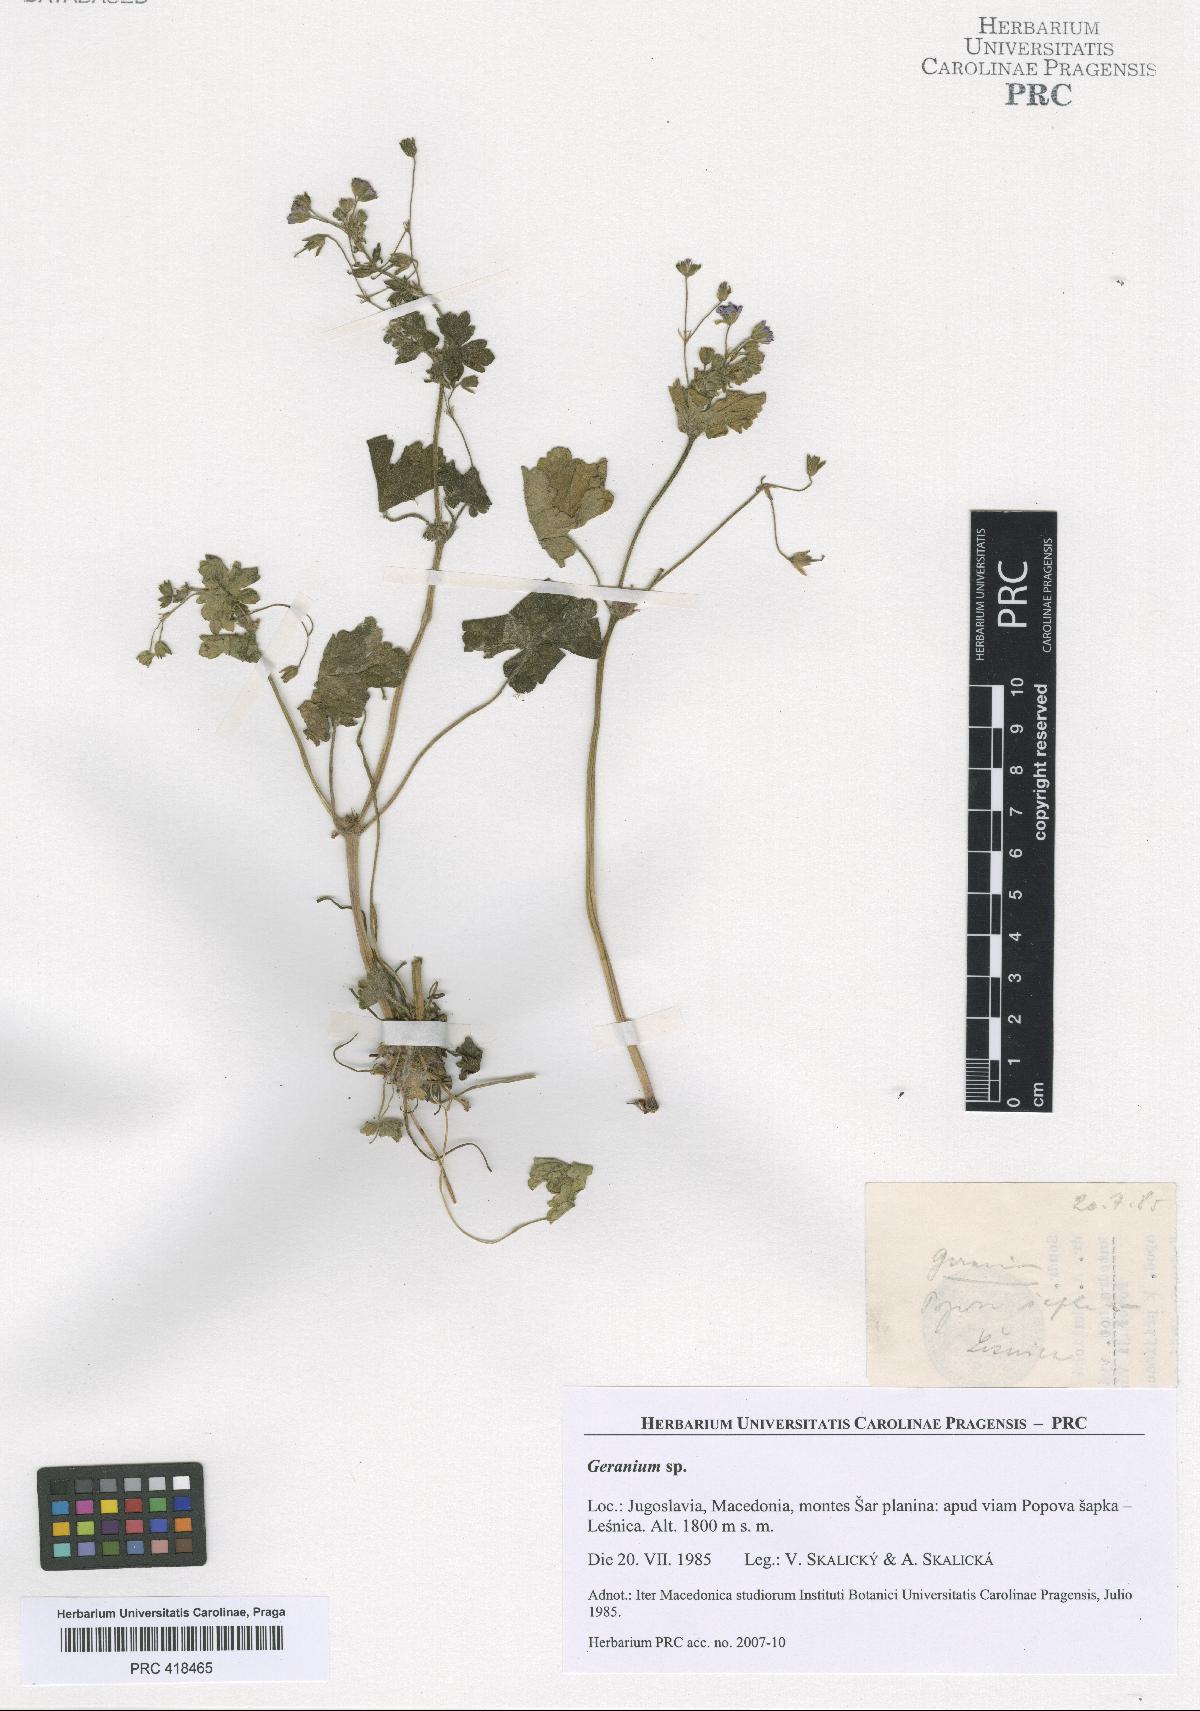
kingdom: Plantae
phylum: Tracheophyta
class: Magnoliopsida
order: Geraniales
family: Geraniaceae
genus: Geranium
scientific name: Geranium pyrenaicum
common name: Hedgerow crane's-bill
